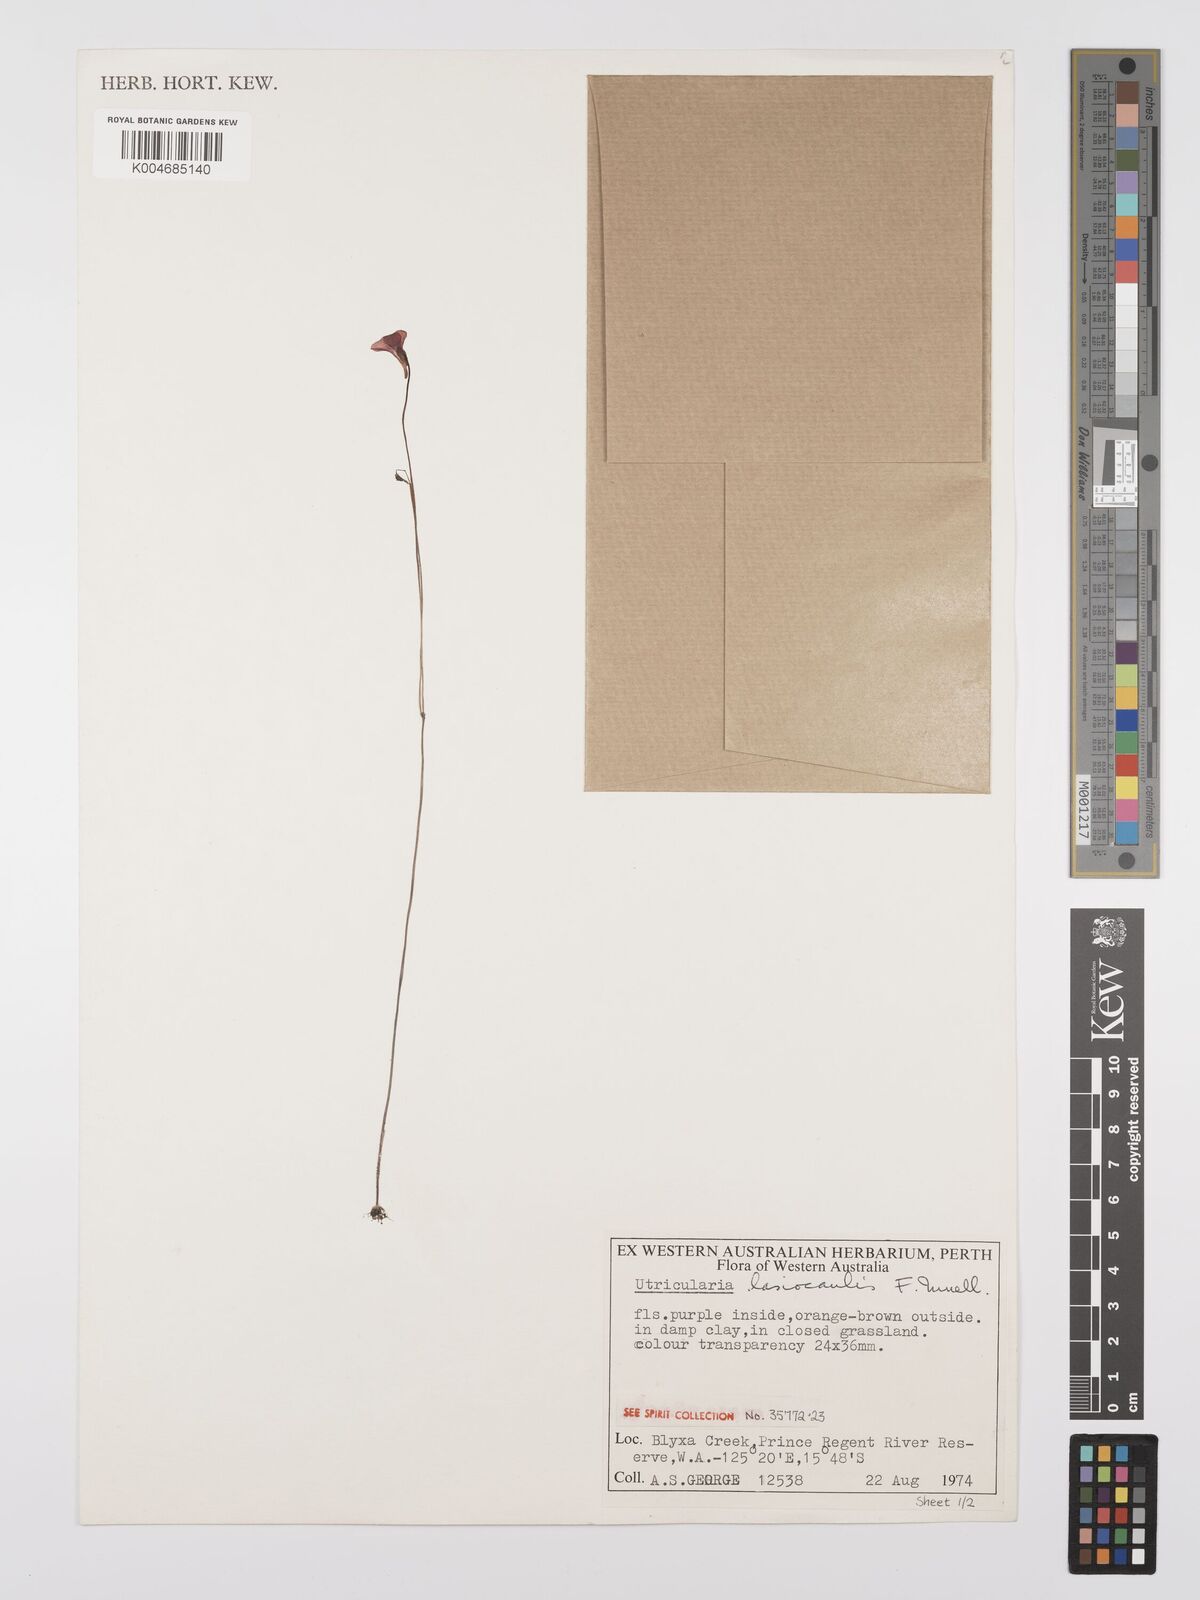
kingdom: Plantae
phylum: Tracheophyta
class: Magnoliopsida
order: Lamiales
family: Lentibulariaceae
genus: Utricularia
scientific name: Utricularia lasiocaulis
